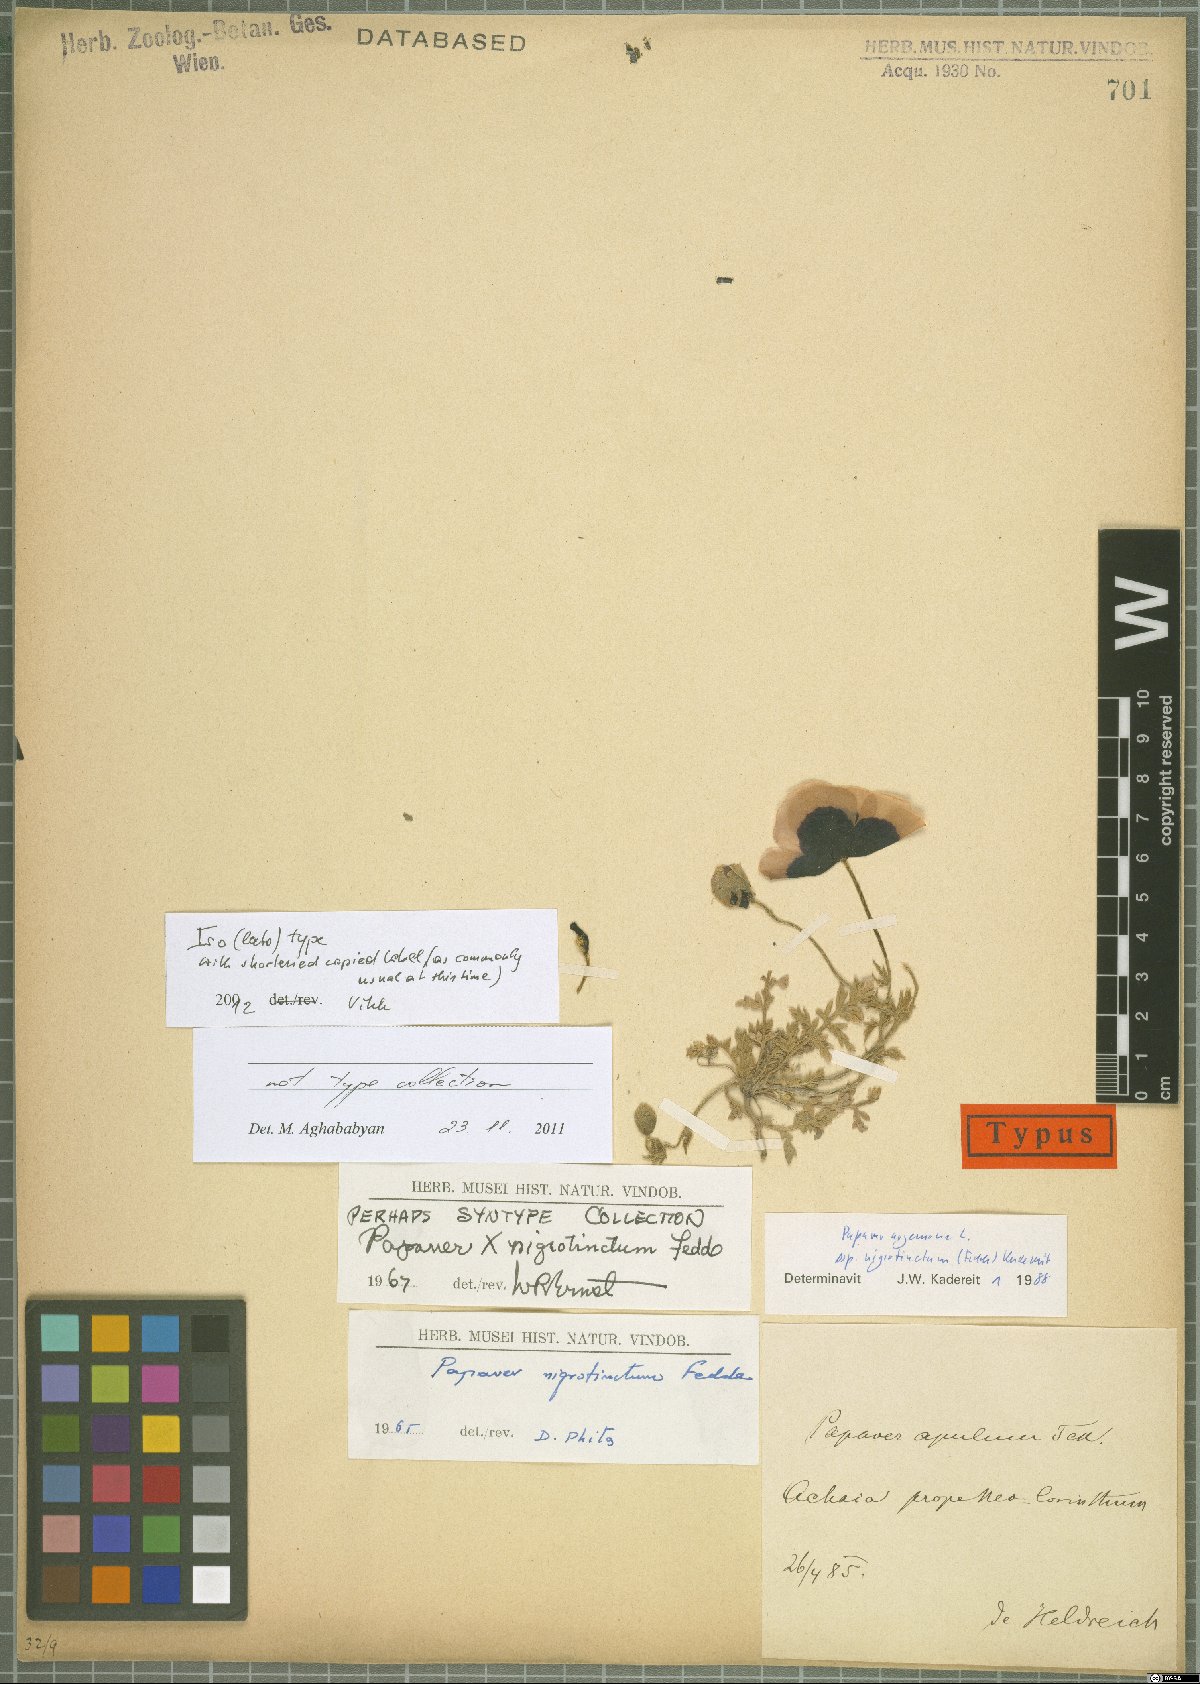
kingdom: Plantae
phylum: Tracheophyta
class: Magnoliopsida
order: Ranunculales
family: Papaveraceae
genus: Roemeria
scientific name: Roemeria nigrotincta
